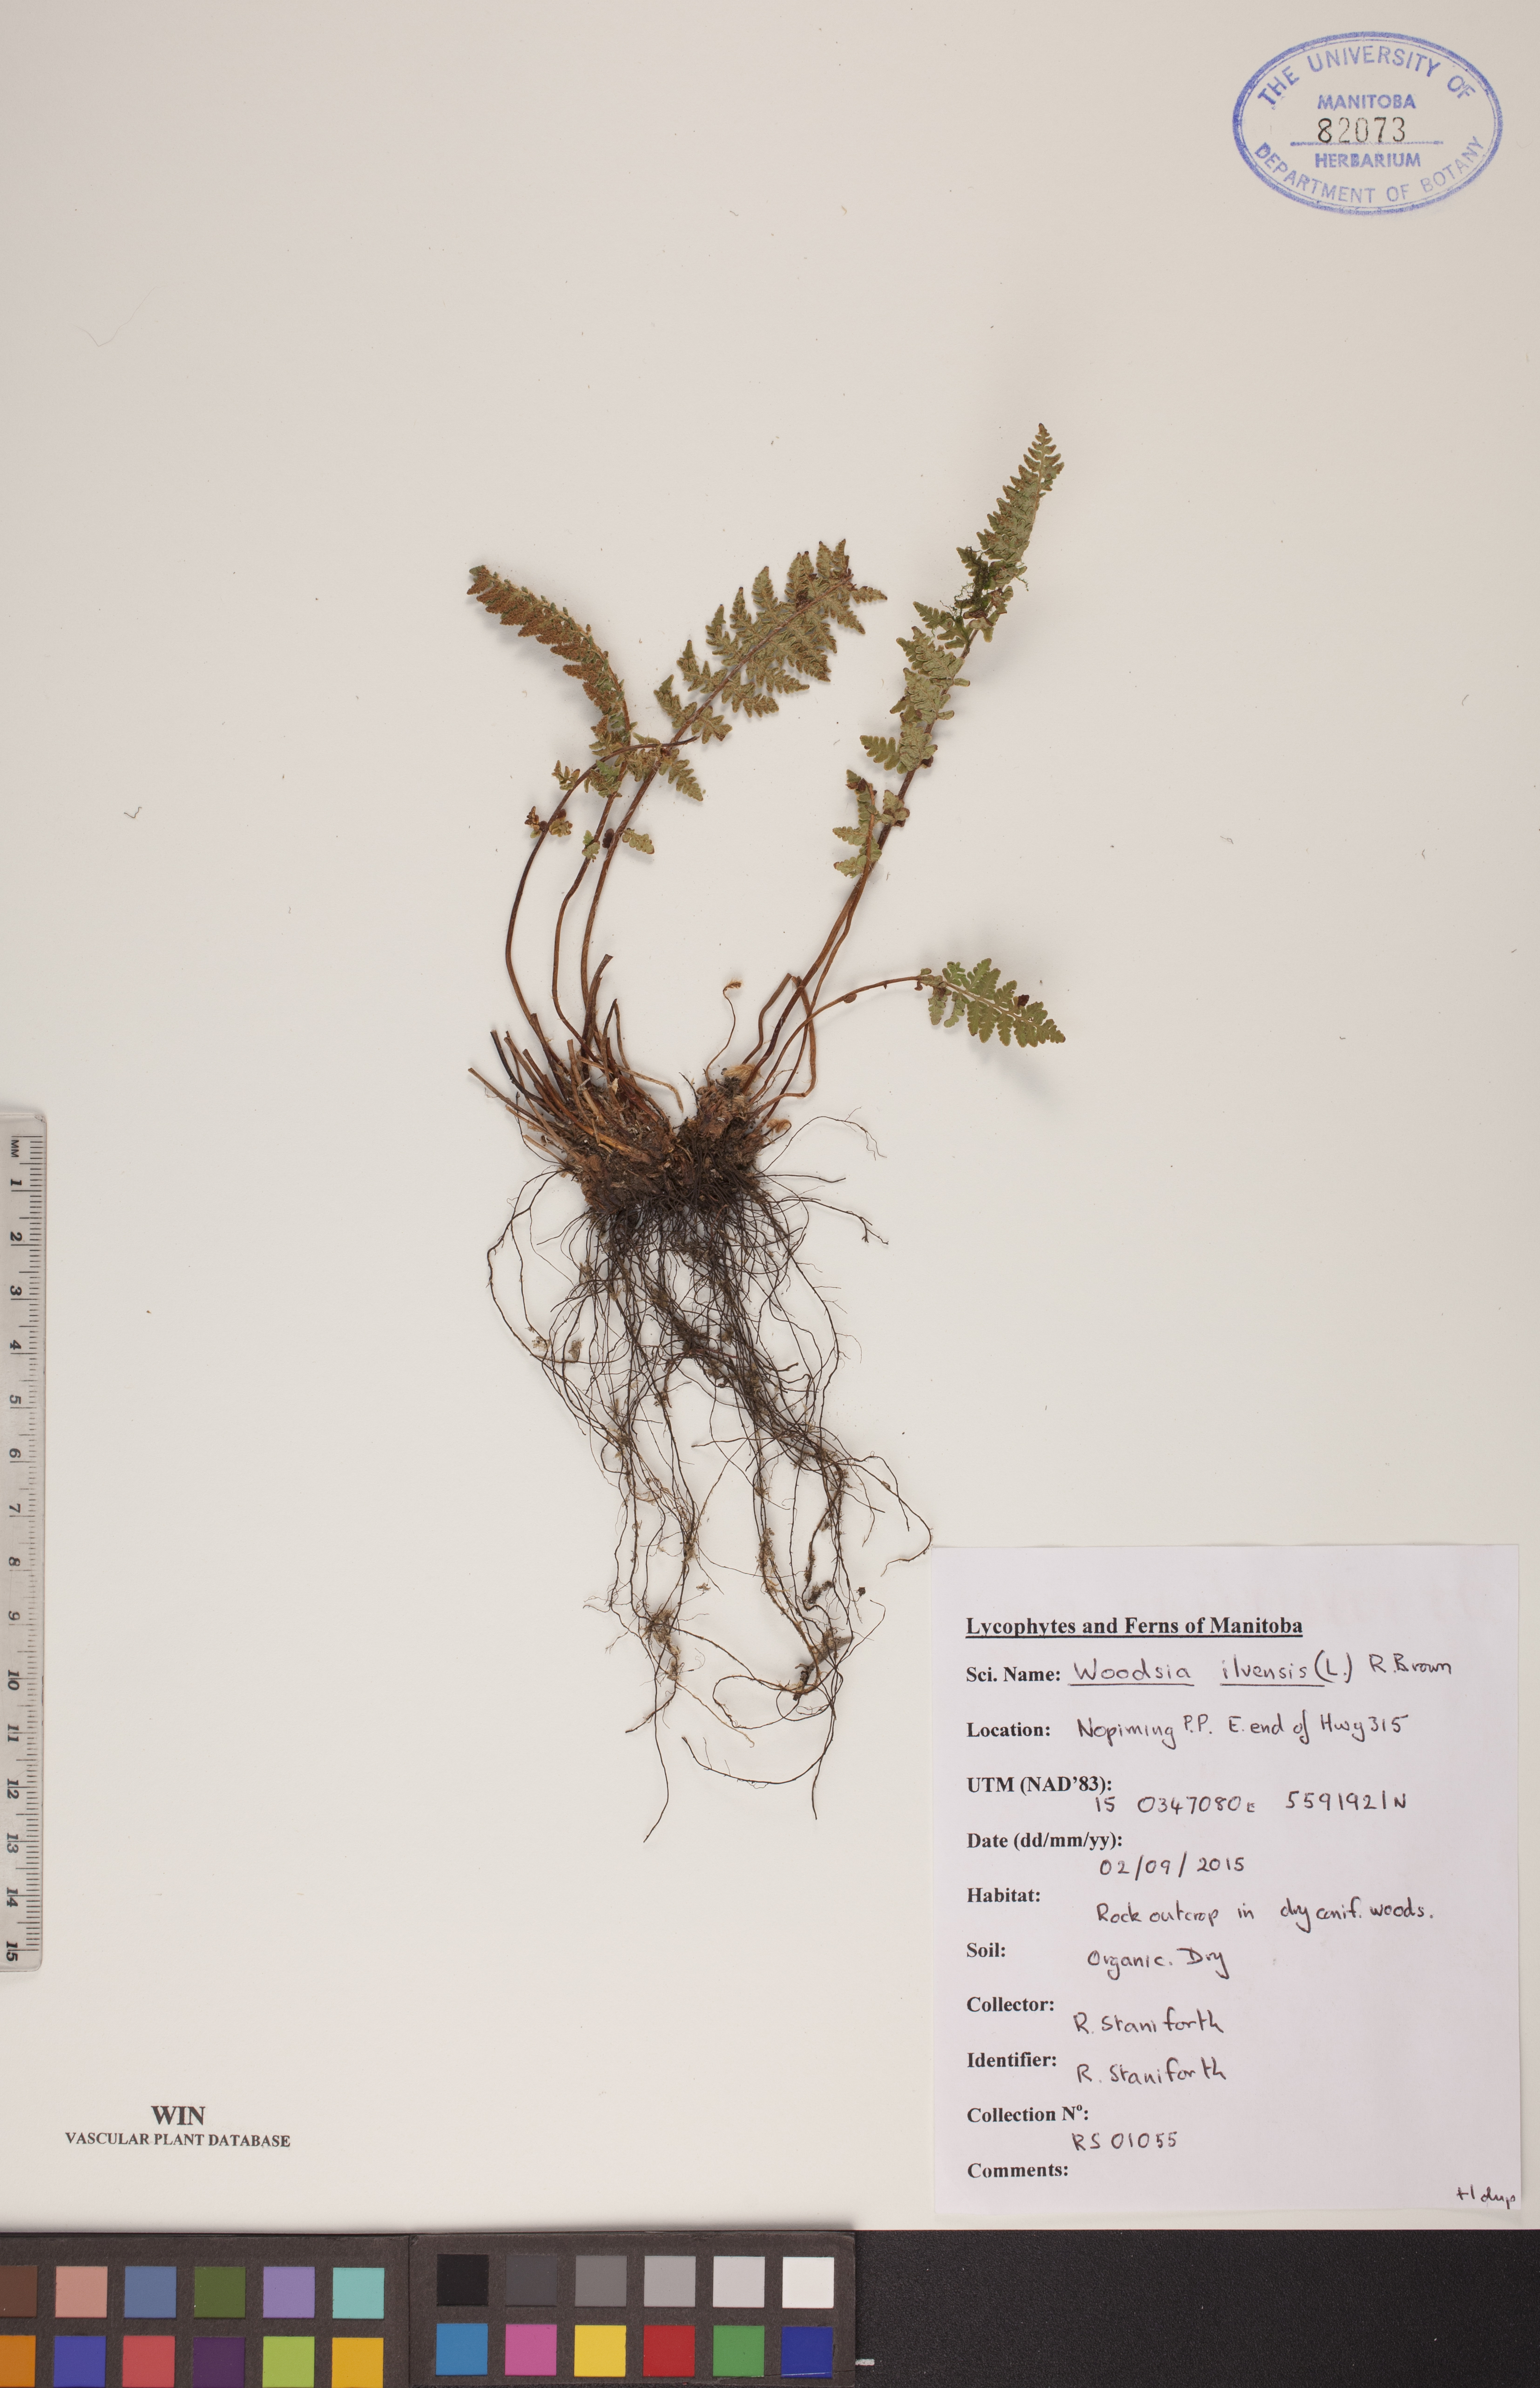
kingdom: Plantae
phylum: Tracheophyta
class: Polypodiopsida
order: Polypodiales
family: Woodsiaceae
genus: Woodsia
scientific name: Woodsia ilvensis
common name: Fragrant woodsia
